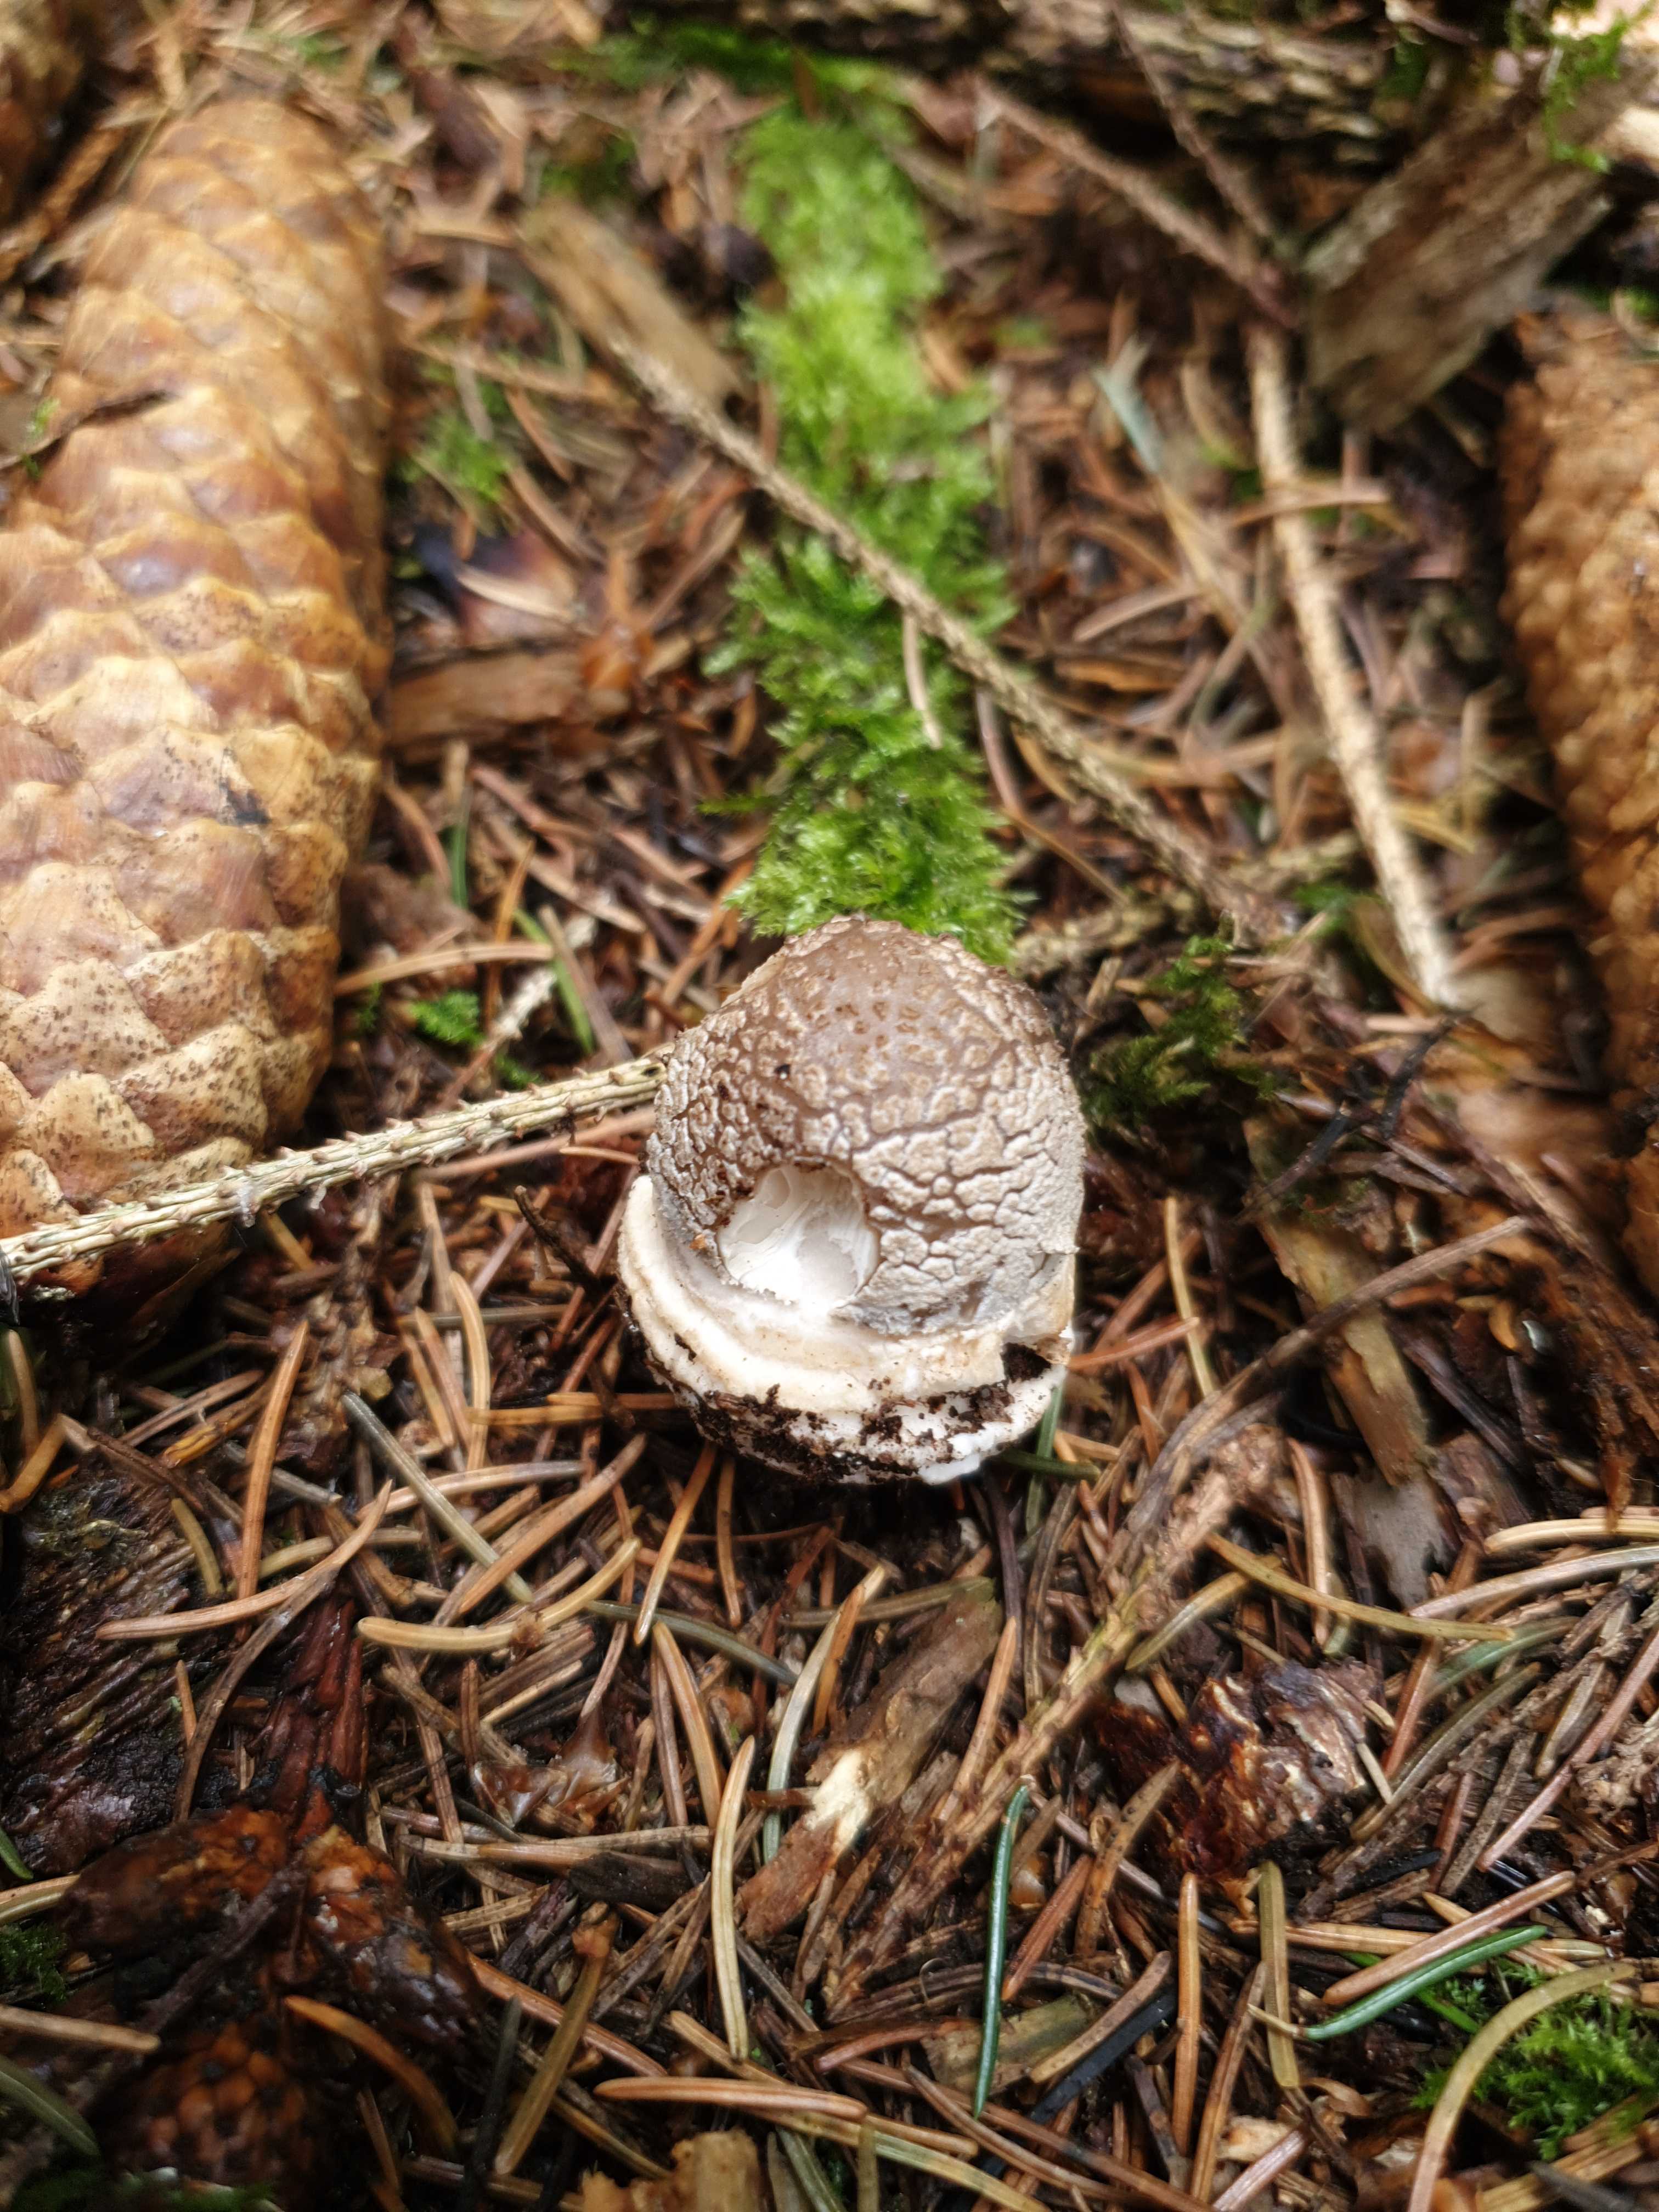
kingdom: Fungi
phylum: Basidiomycota
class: Agaricomycetes
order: Agaricales
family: Amanitaceae
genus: Amanita
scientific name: Amanita
